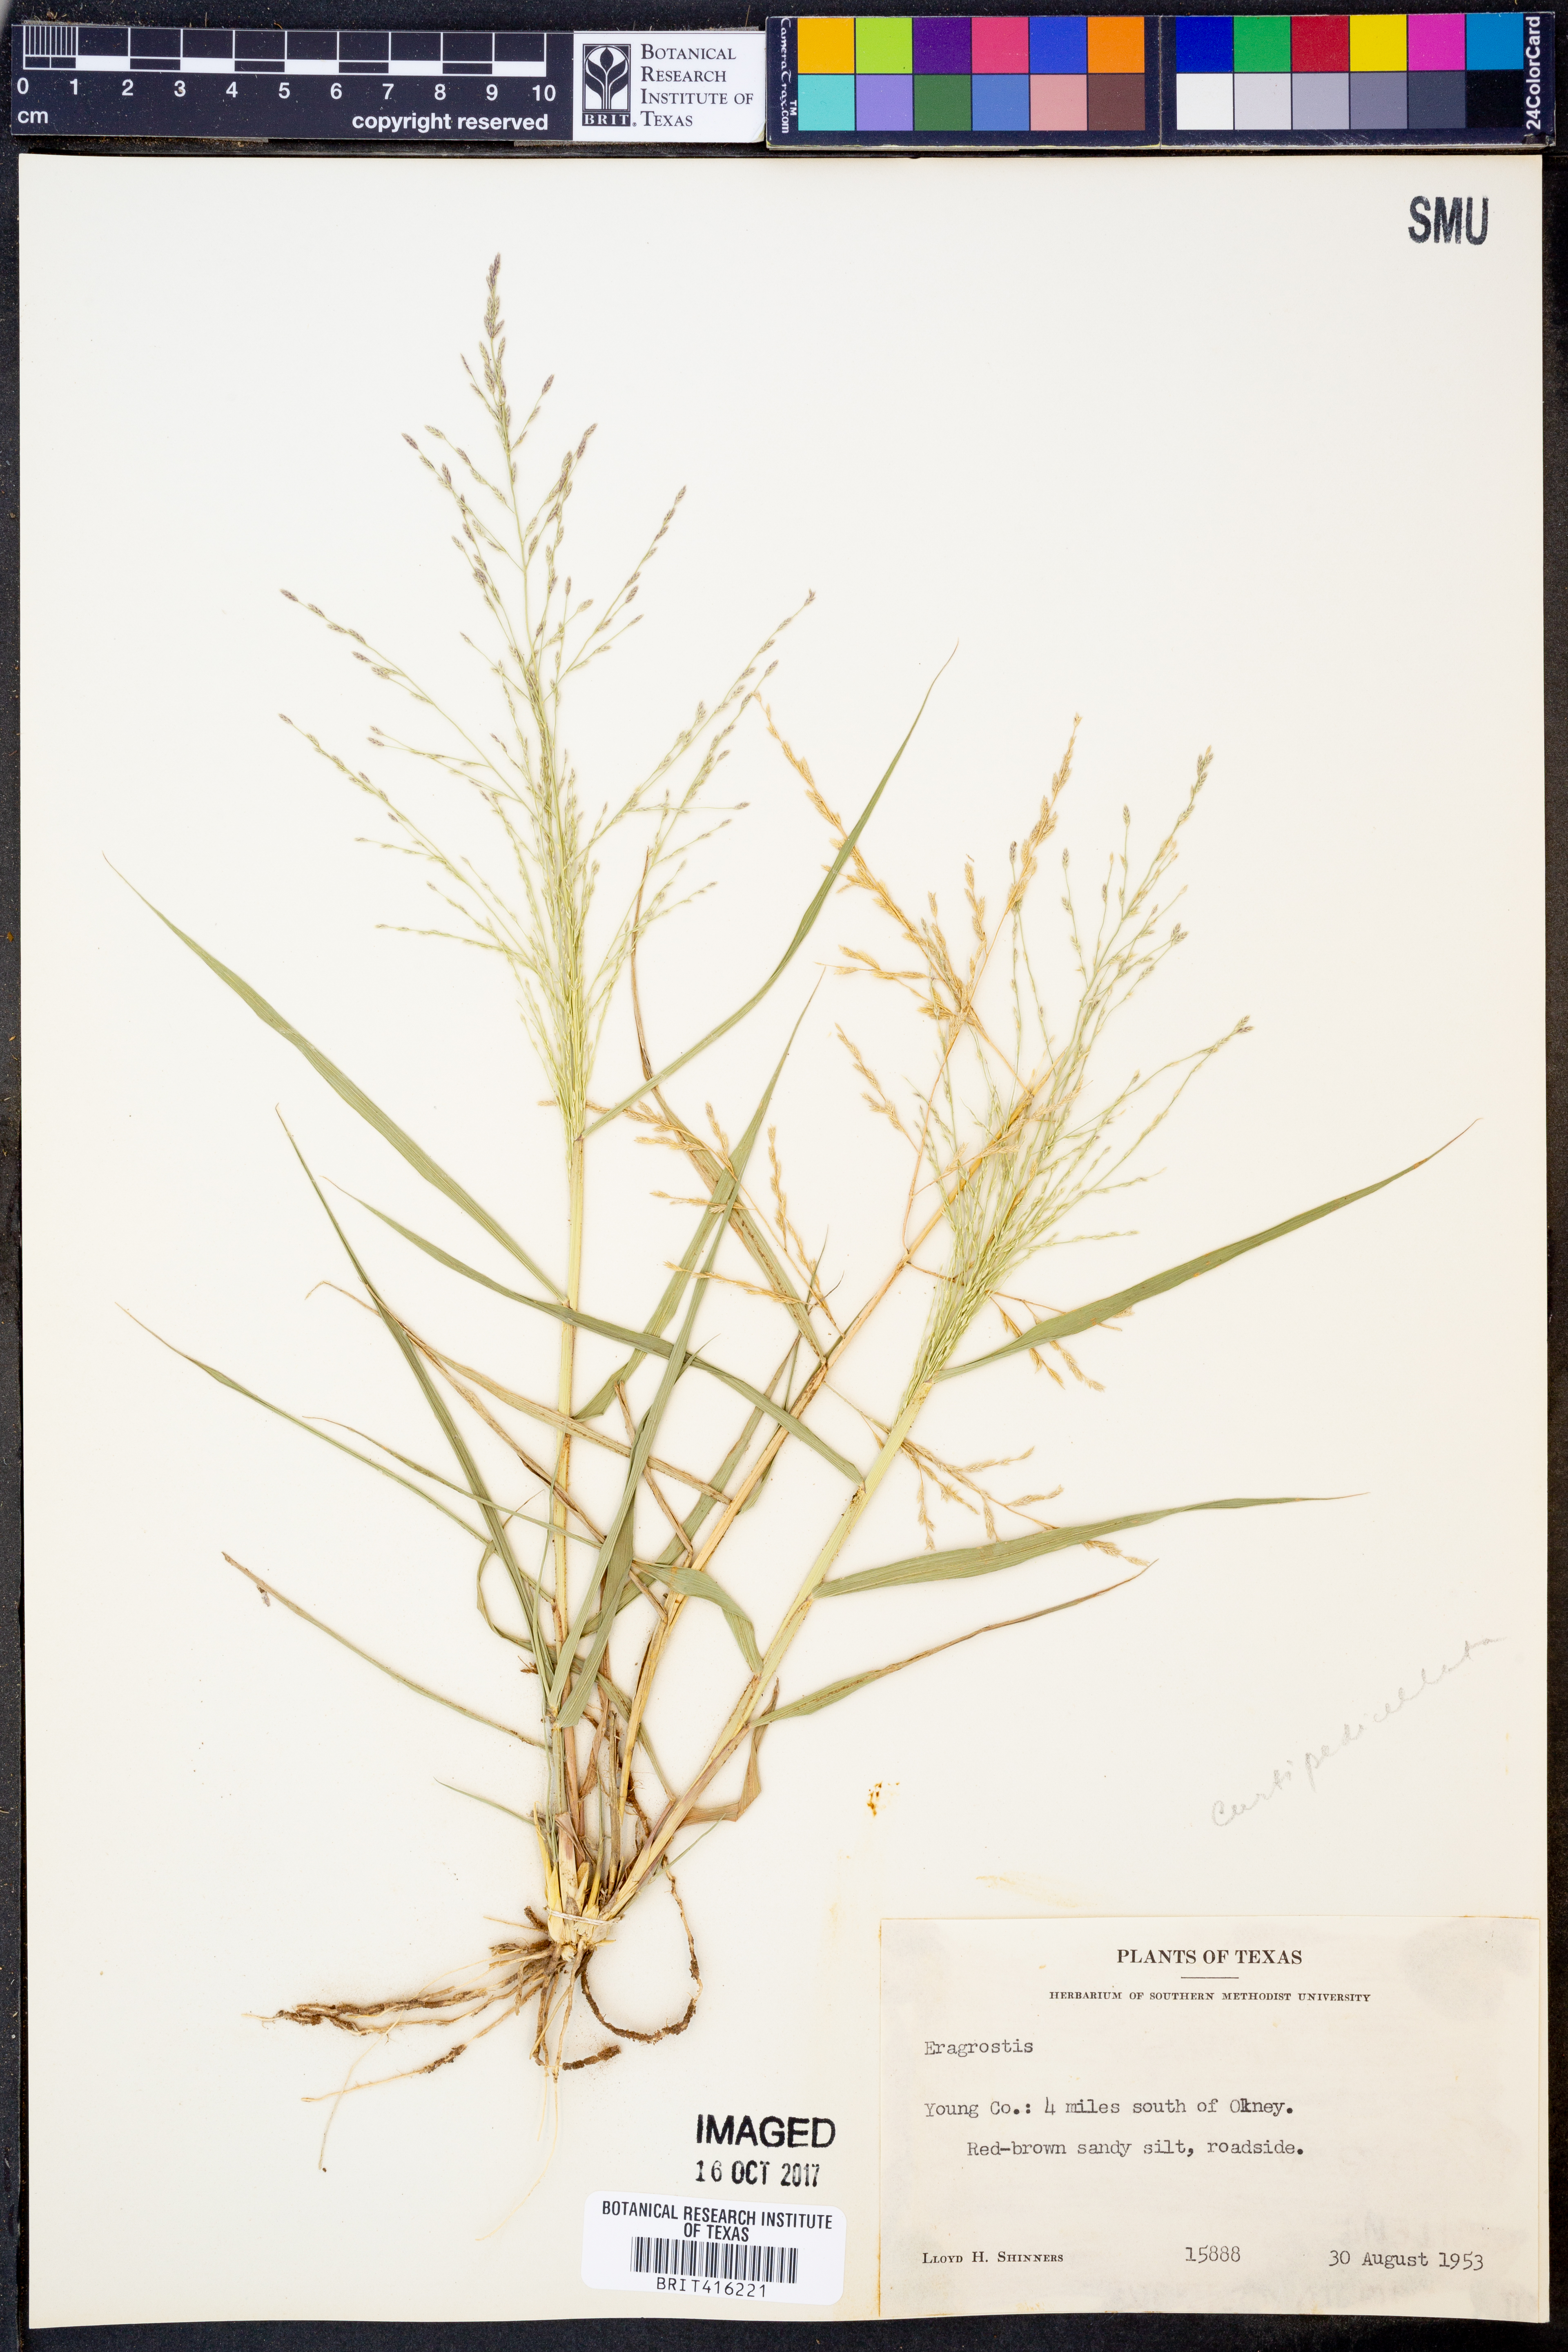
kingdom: Plantae
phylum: Tracheophyta
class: Liliopsida
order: Poales
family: Poaceae
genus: Eragrostis
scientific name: Eragrostis
